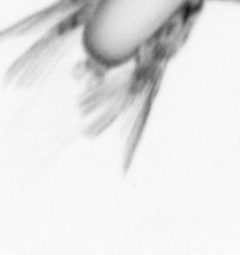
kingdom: Animalia
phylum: Arthropoda
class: Copepoda
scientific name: Copepoda
